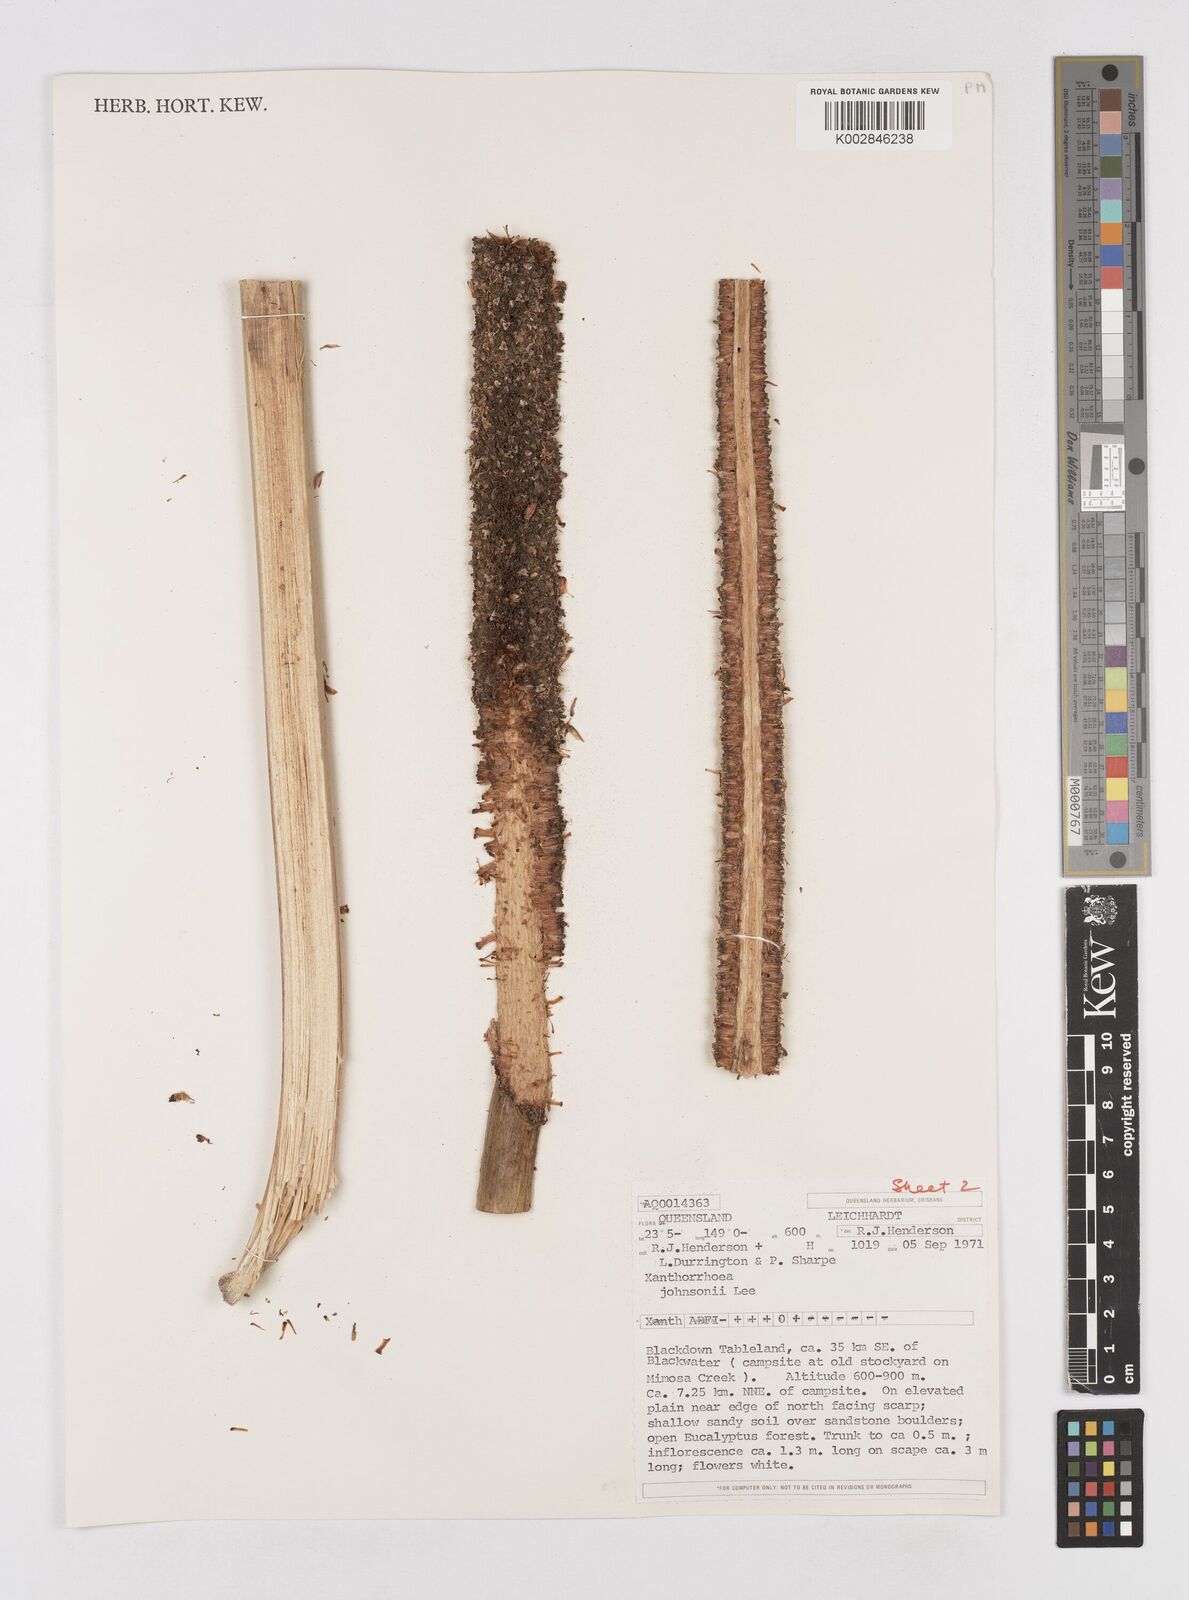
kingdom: Plantae
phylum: Tracheophyta
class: Liliopsida
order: Asparagales
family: Asphodelaceae
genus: Xanthorrhoea
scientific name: Xanthorrhoea johnsonii
